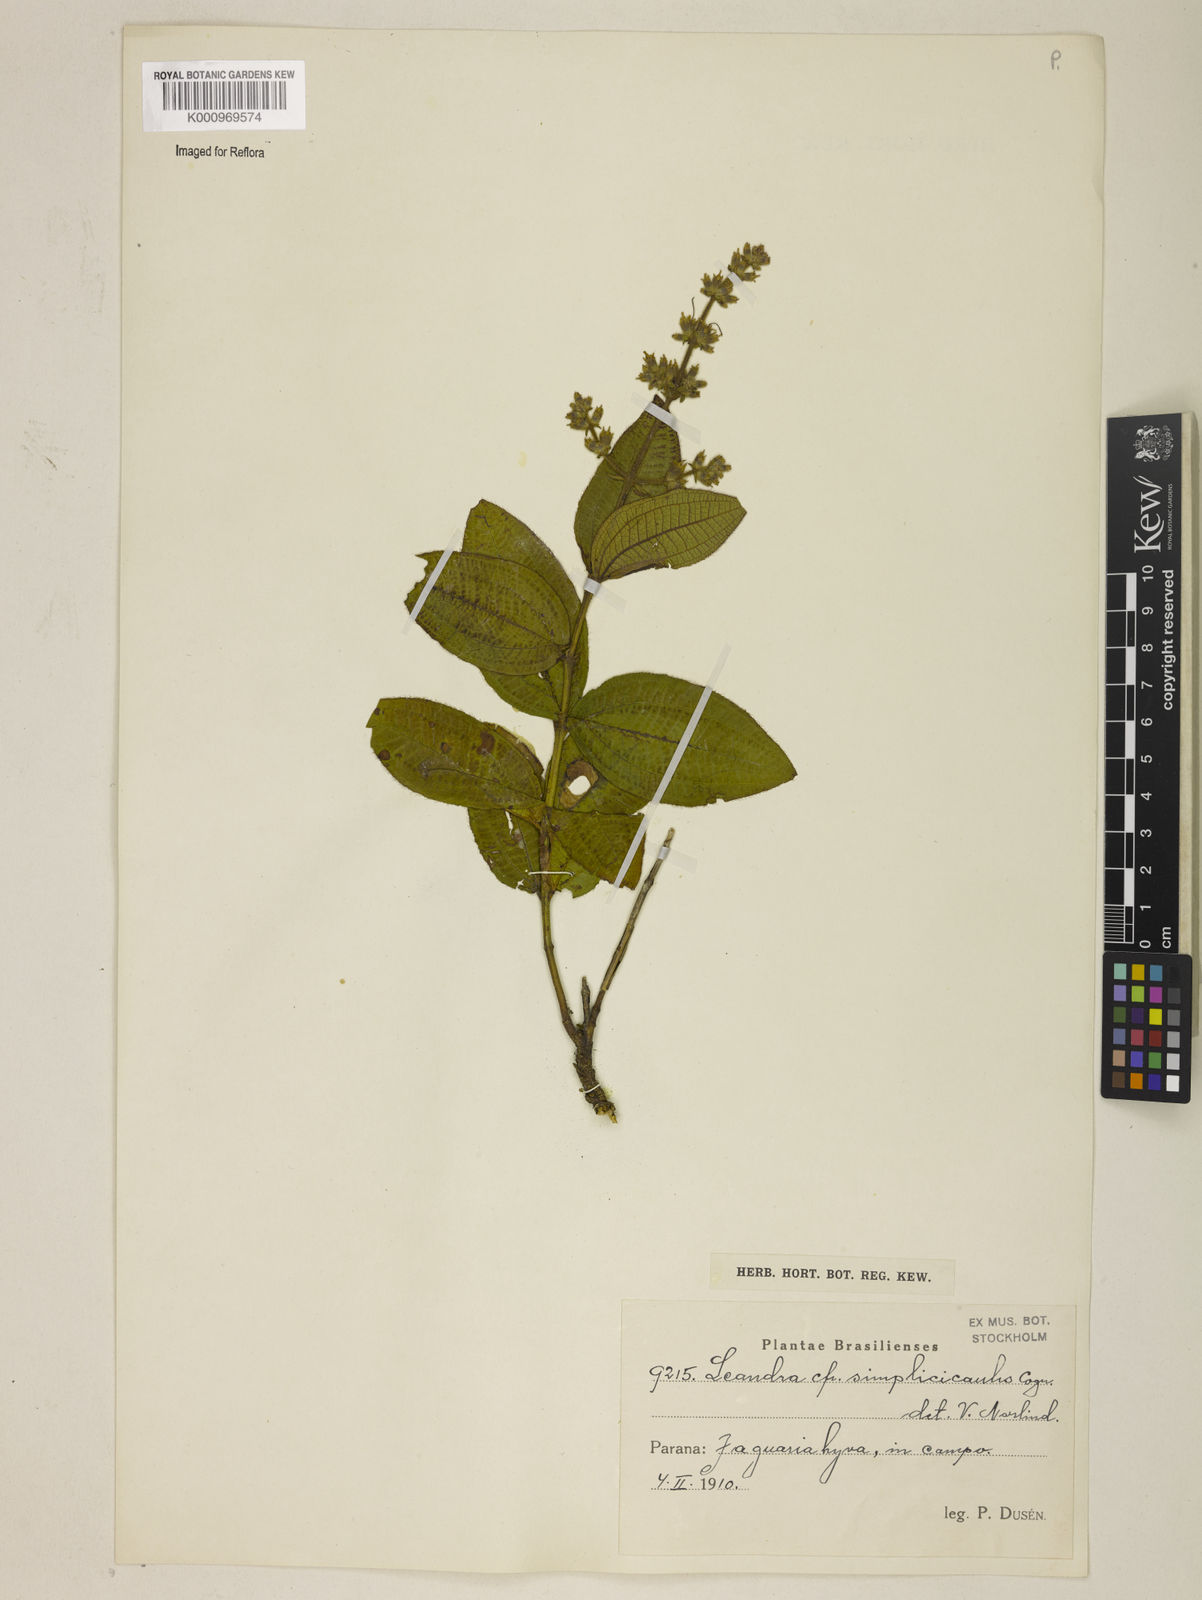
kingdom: Plantae
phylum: Tracheophyta
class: Magnoliopsida
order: Myrtales
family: Melastomataceae
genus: Miconia
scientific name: Miconia simplicicaulis
